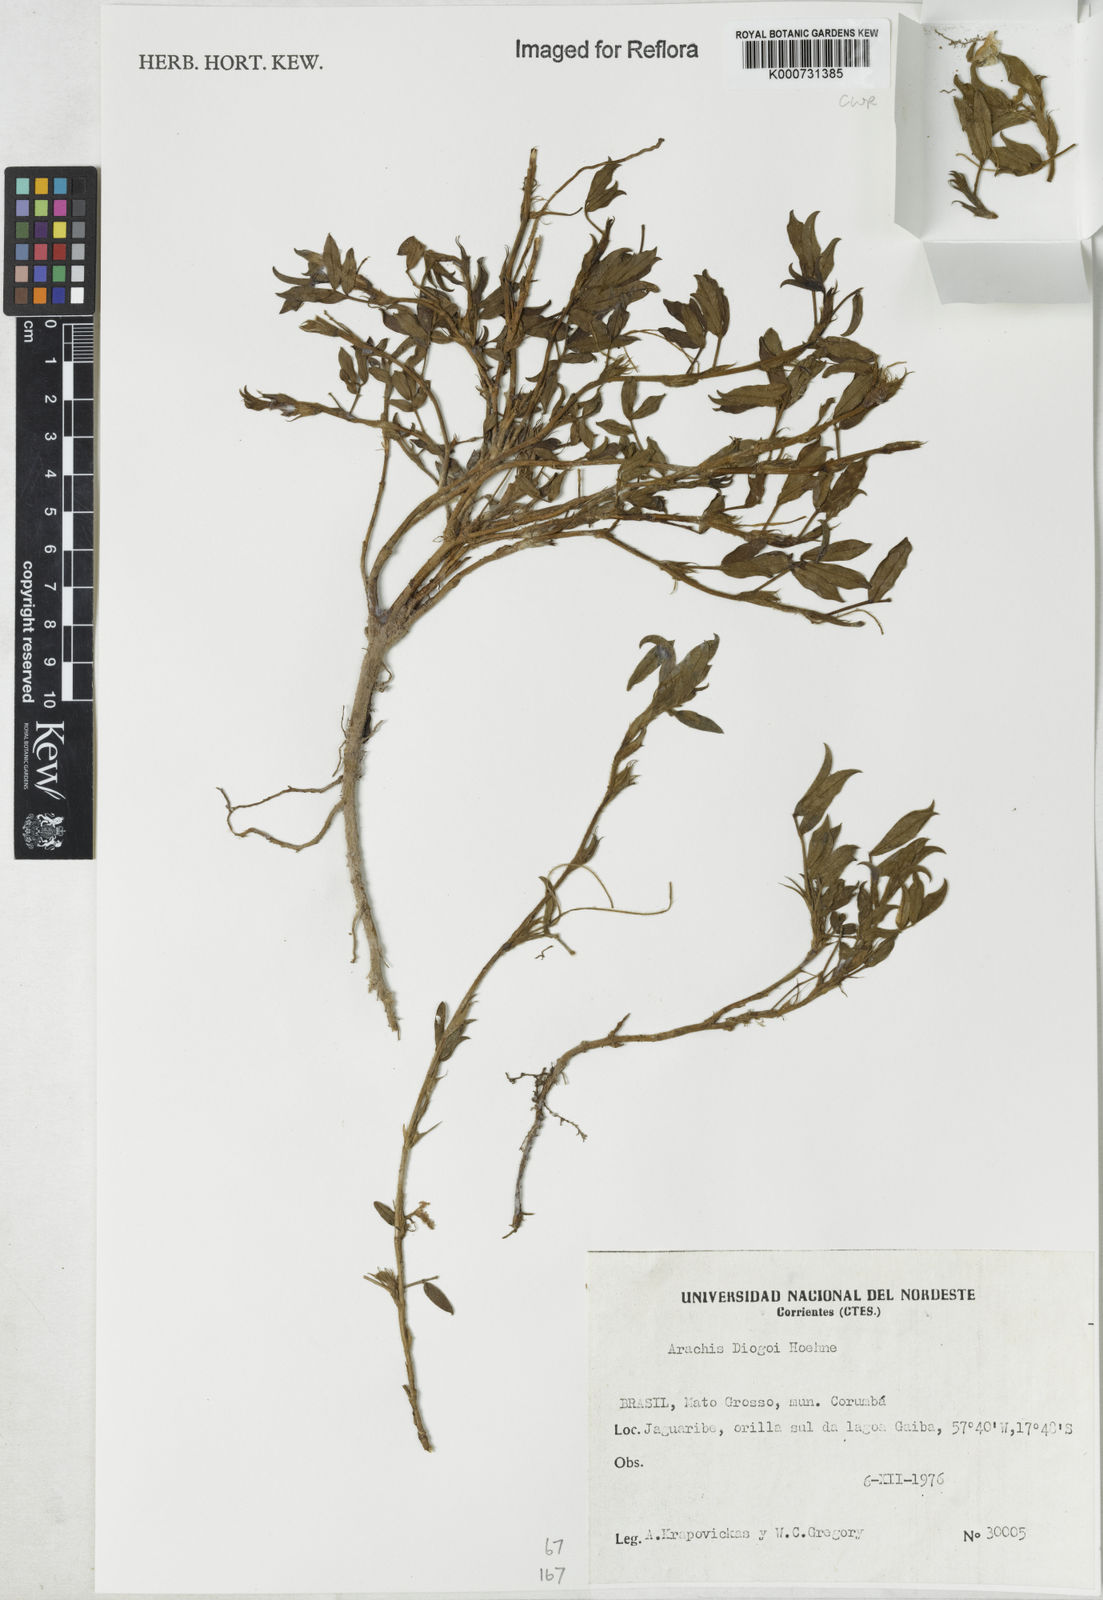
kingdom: Plantae
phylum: Tracheophyta
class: Magnoliopsida
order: Fabales
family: Fabaceae
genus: Arachis
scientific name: Arachis diogoi
